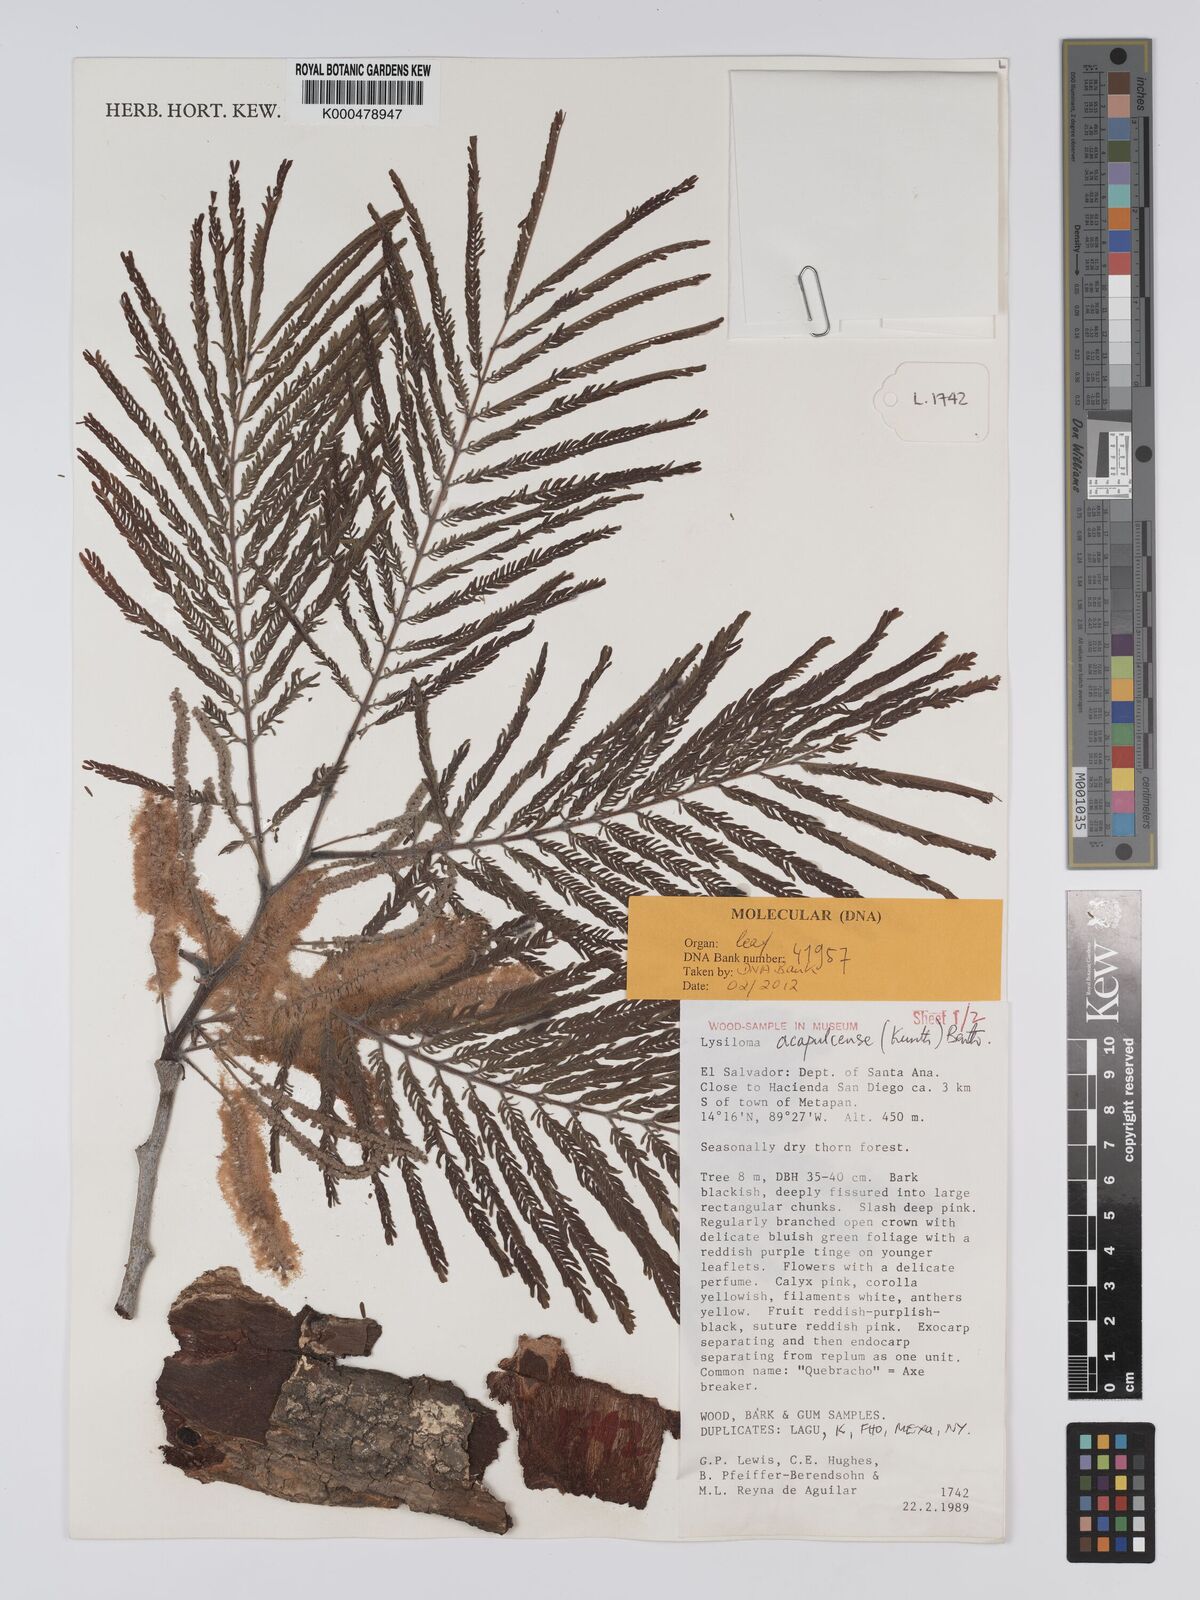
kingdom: Plantae
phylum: Tracheophyta
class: Magnoliopsida
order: Fabales
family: Fabaceae
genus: Lysiloma
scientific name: Lysiloma
